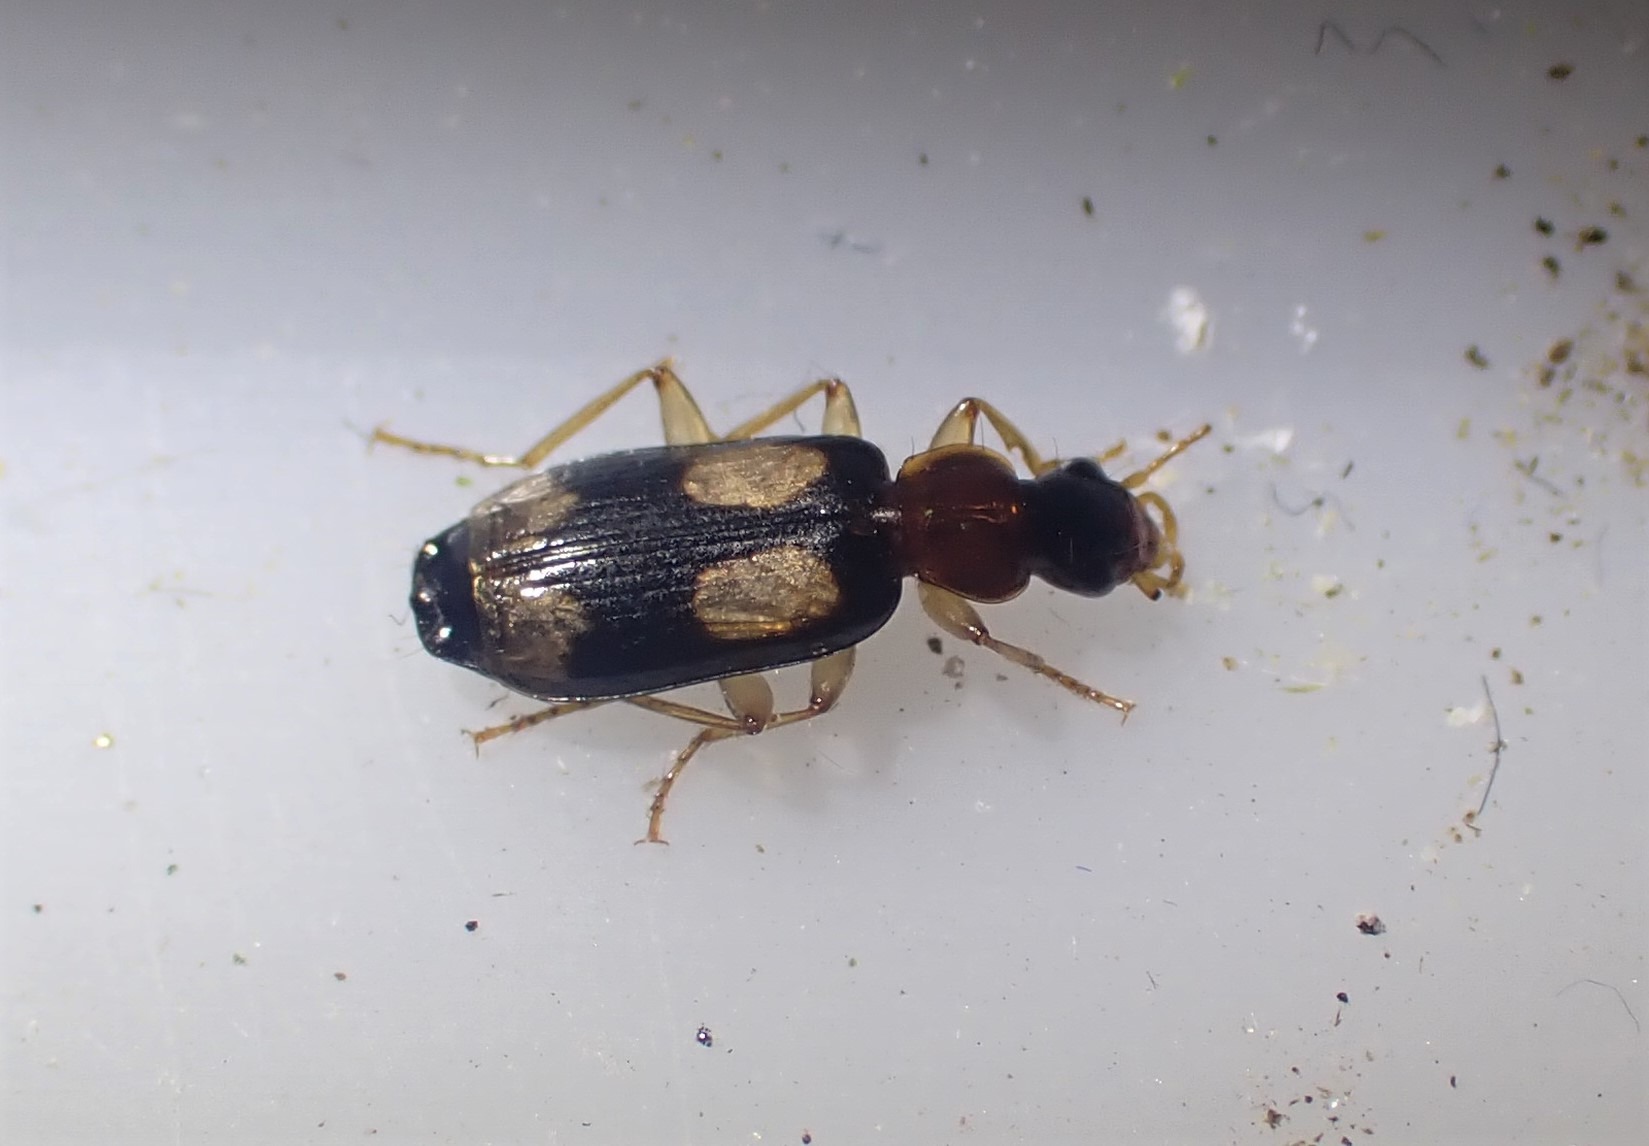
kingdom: Animalia
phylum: Arthropoda
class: Insecta
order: Coleoptera
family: Carabidae
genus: Dromius
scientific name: Dromius quadrimaculatus
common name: Fireplettet barkløber
